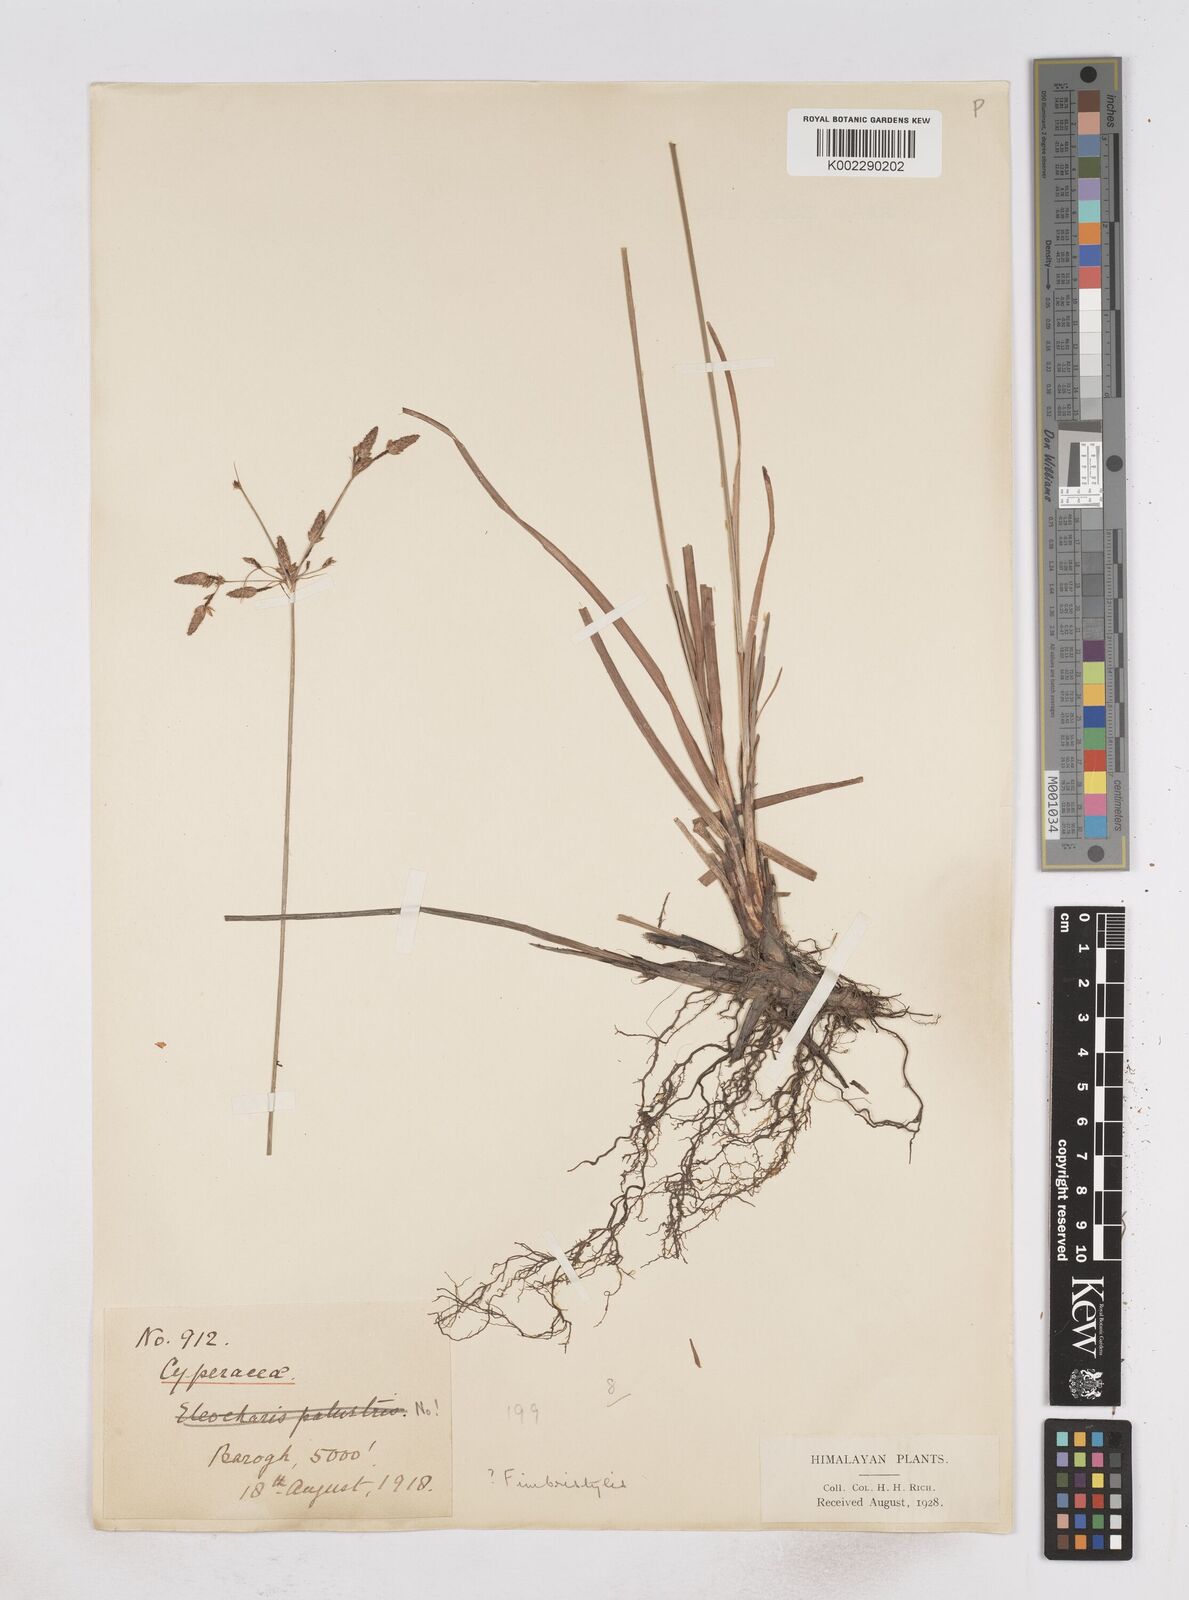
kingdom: Plantae
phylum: Tracheophyta
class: Liliopsida
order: Poales
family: Cyperaceae
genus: Fimbristylis
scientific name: Fimbristylis
